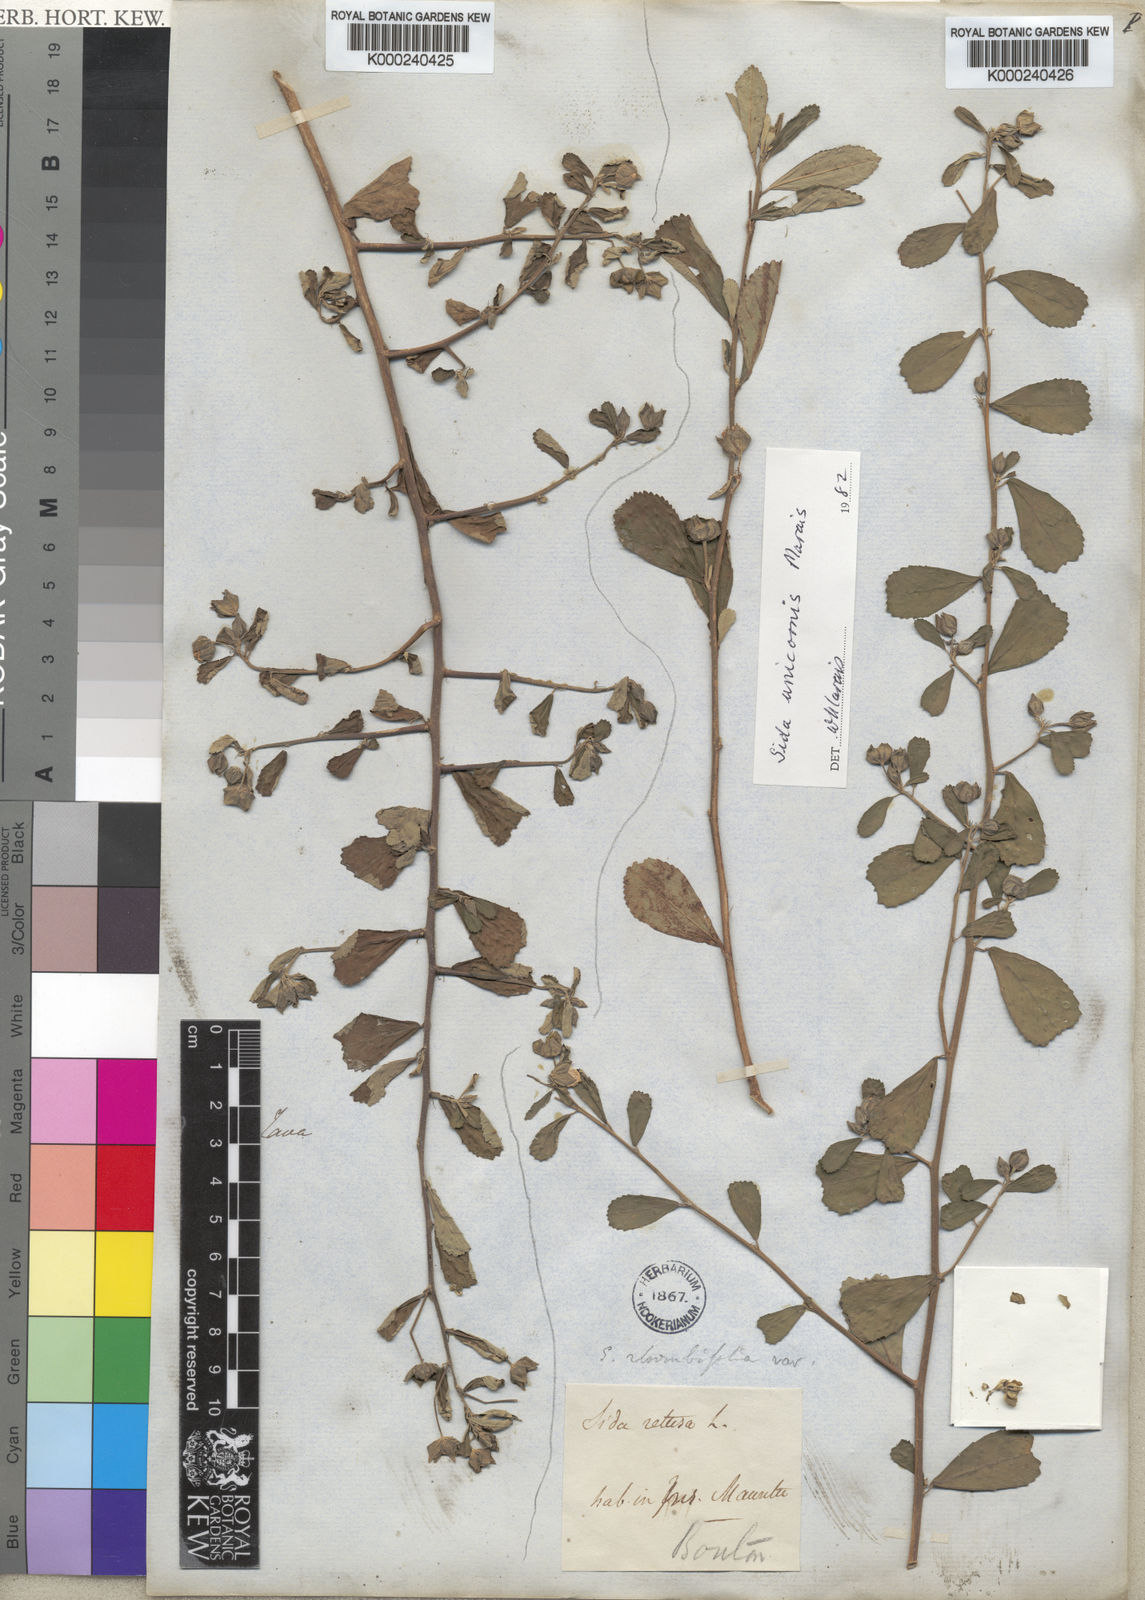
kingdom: Plantae
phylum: Tracheophyta
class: Magnoliopsida
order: Malvales
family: Malvaceae
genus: Sida
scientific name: Sida unicornis
